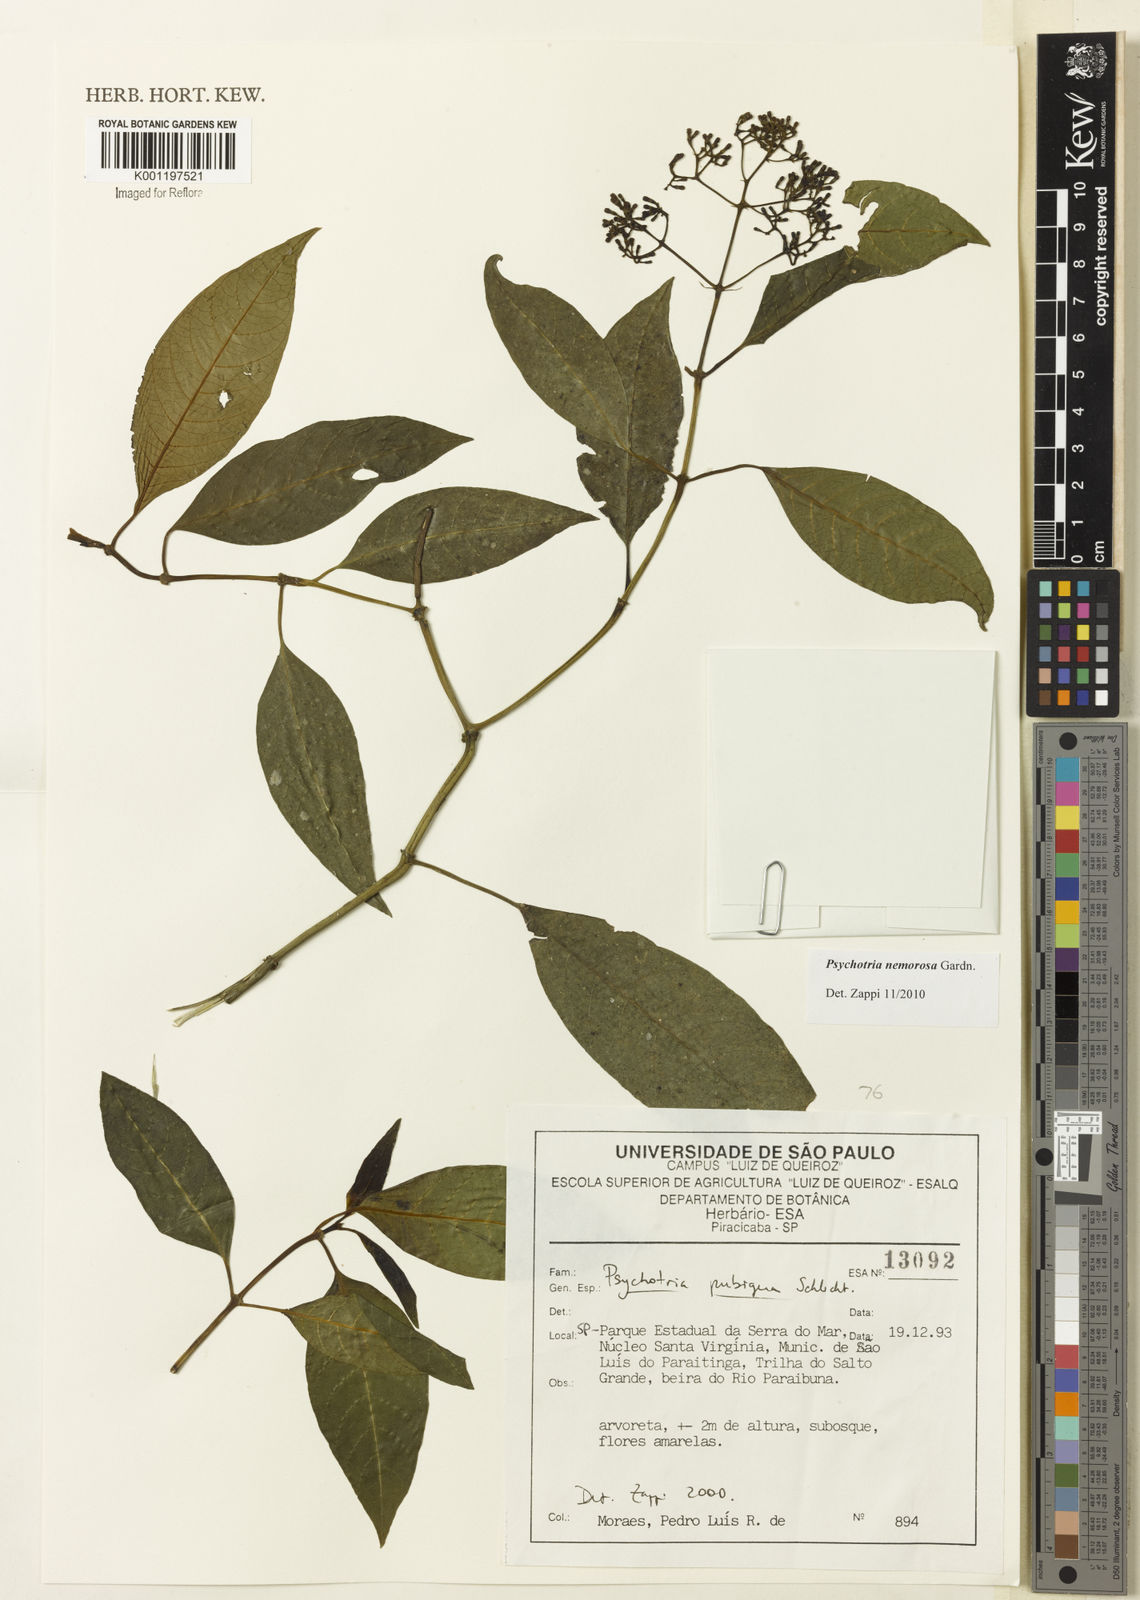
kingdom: Plantae
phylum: Tracheophyta
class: Magnoliopsida
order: Gentianales
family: Rubiaceae
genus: Psychotria
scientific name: Psychotria nemorosa
